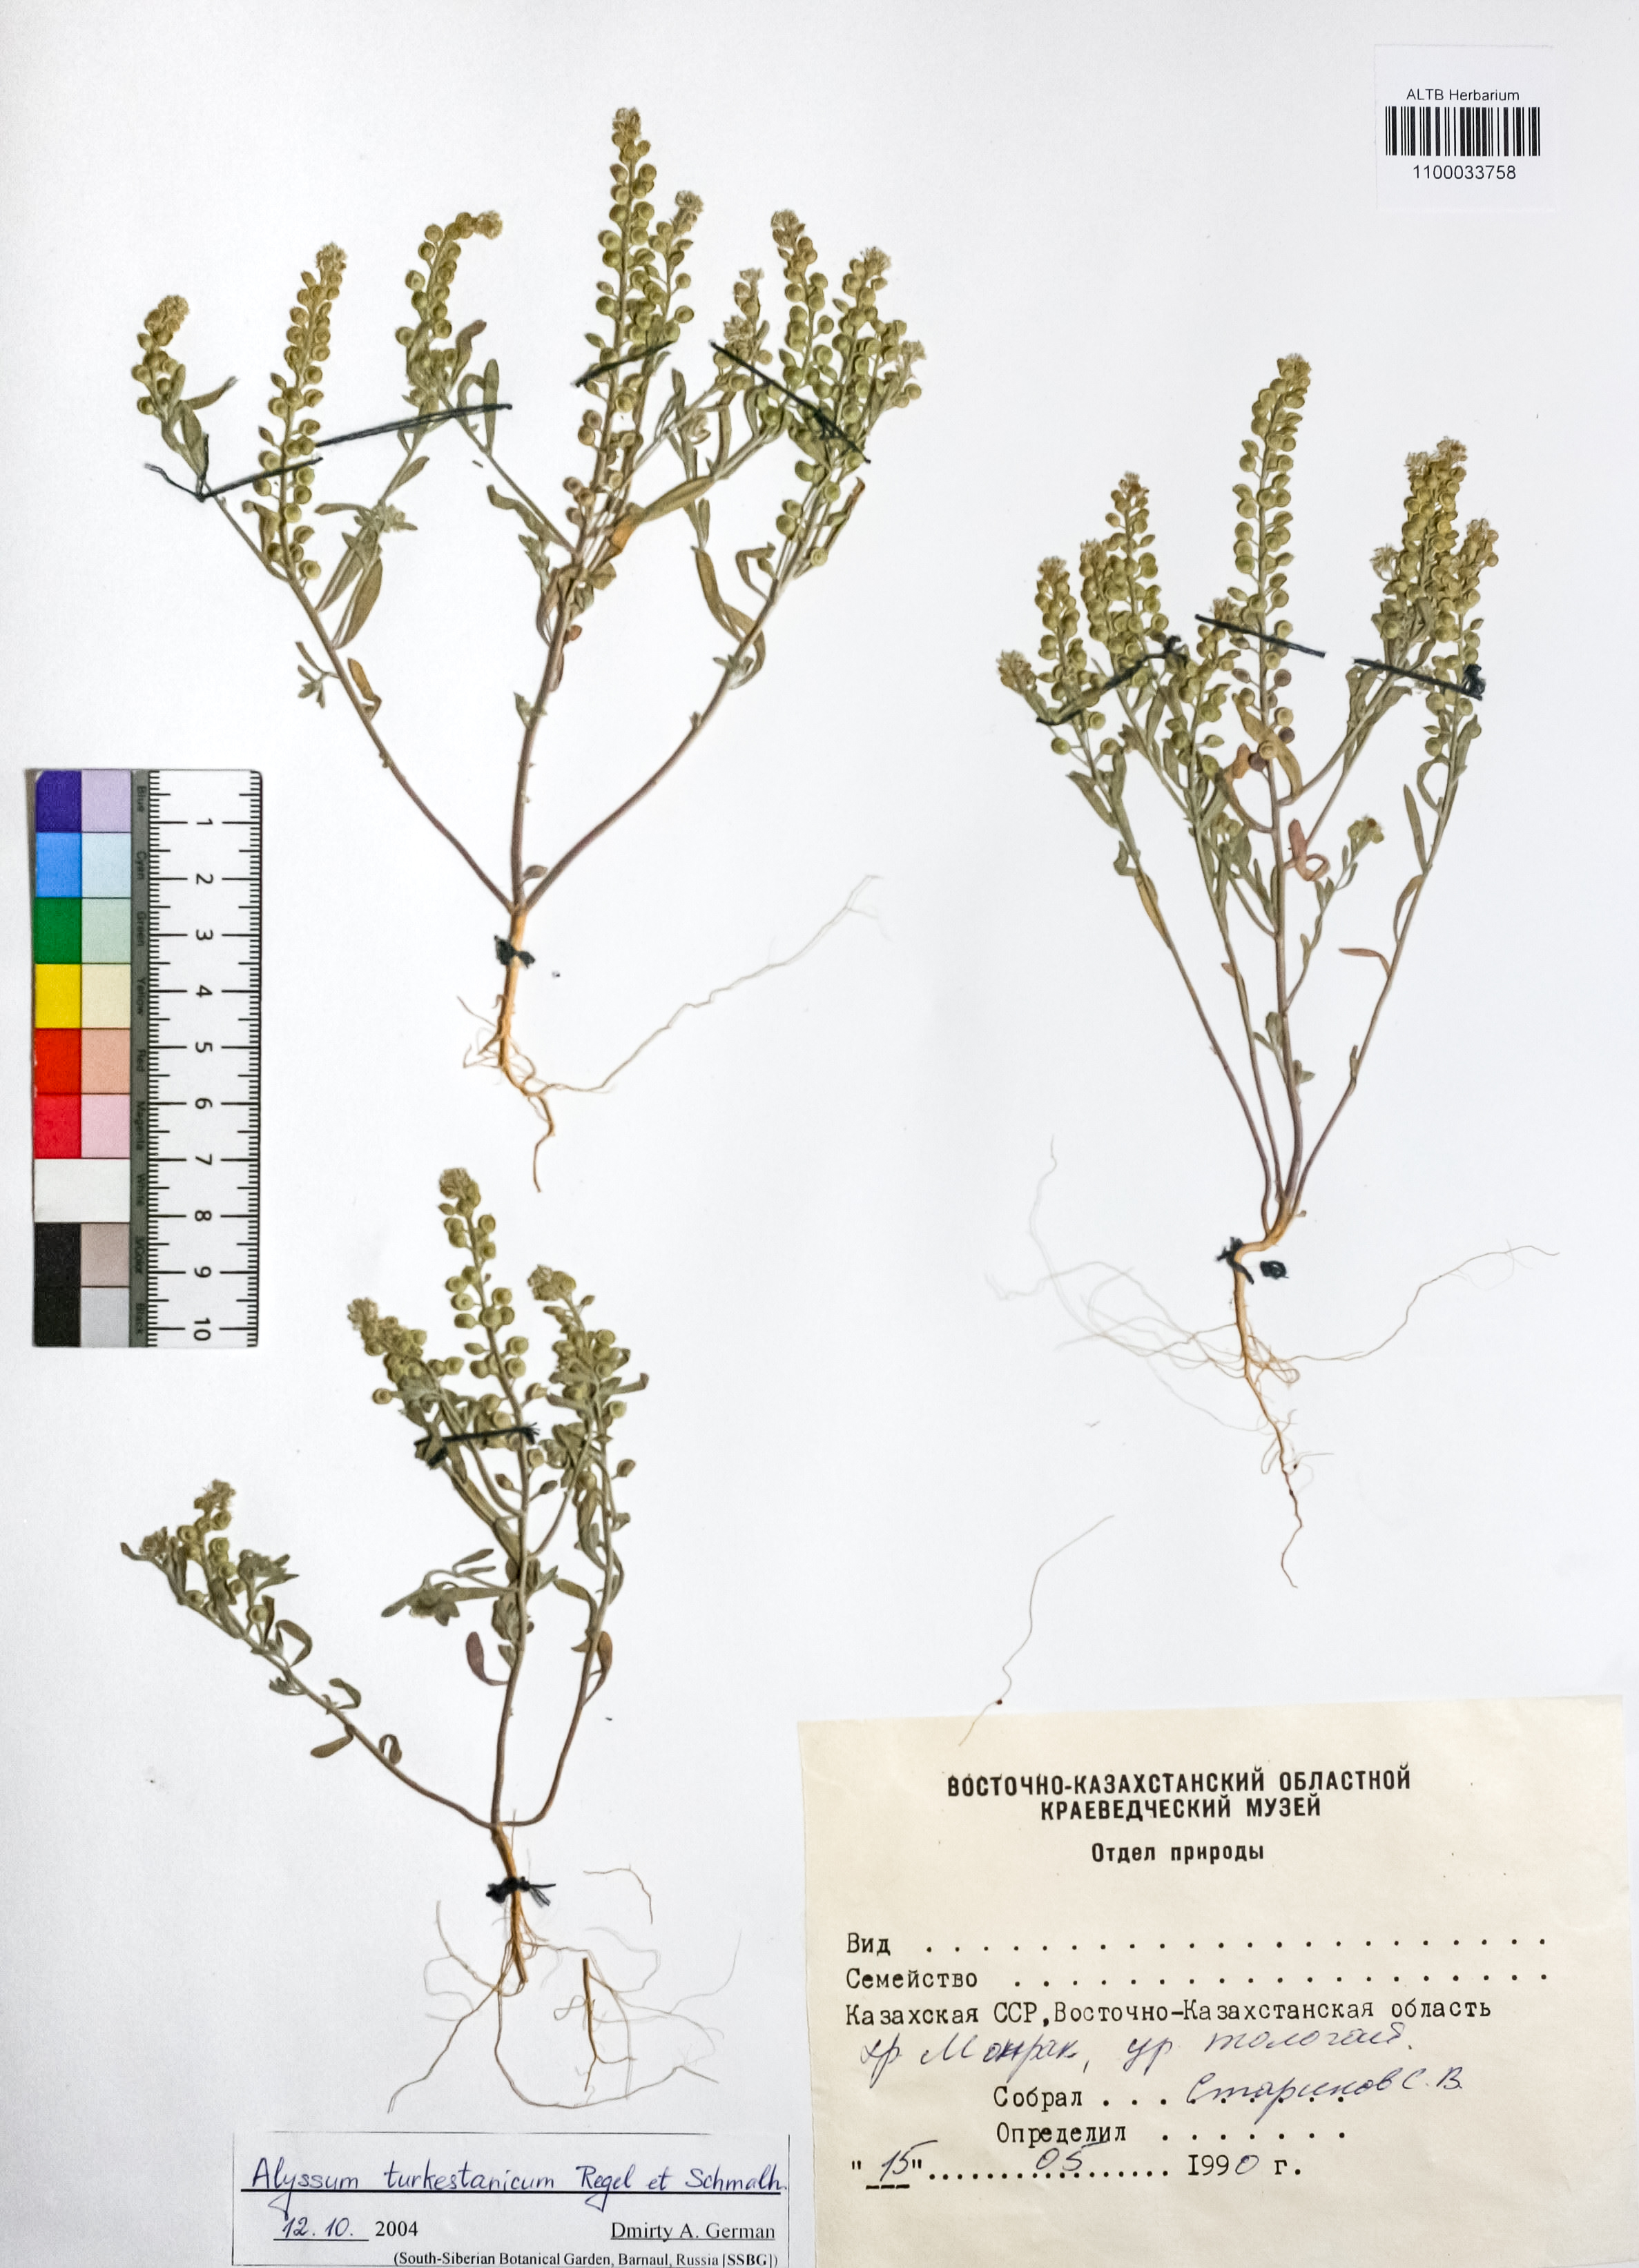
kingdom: Plantae
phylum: Tracheophyta
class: Magnoliopsida
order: Brassicales
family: Brassicaceae
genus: Alyssum
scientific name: Alyssum turkestanicum
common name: Desert alyssum
